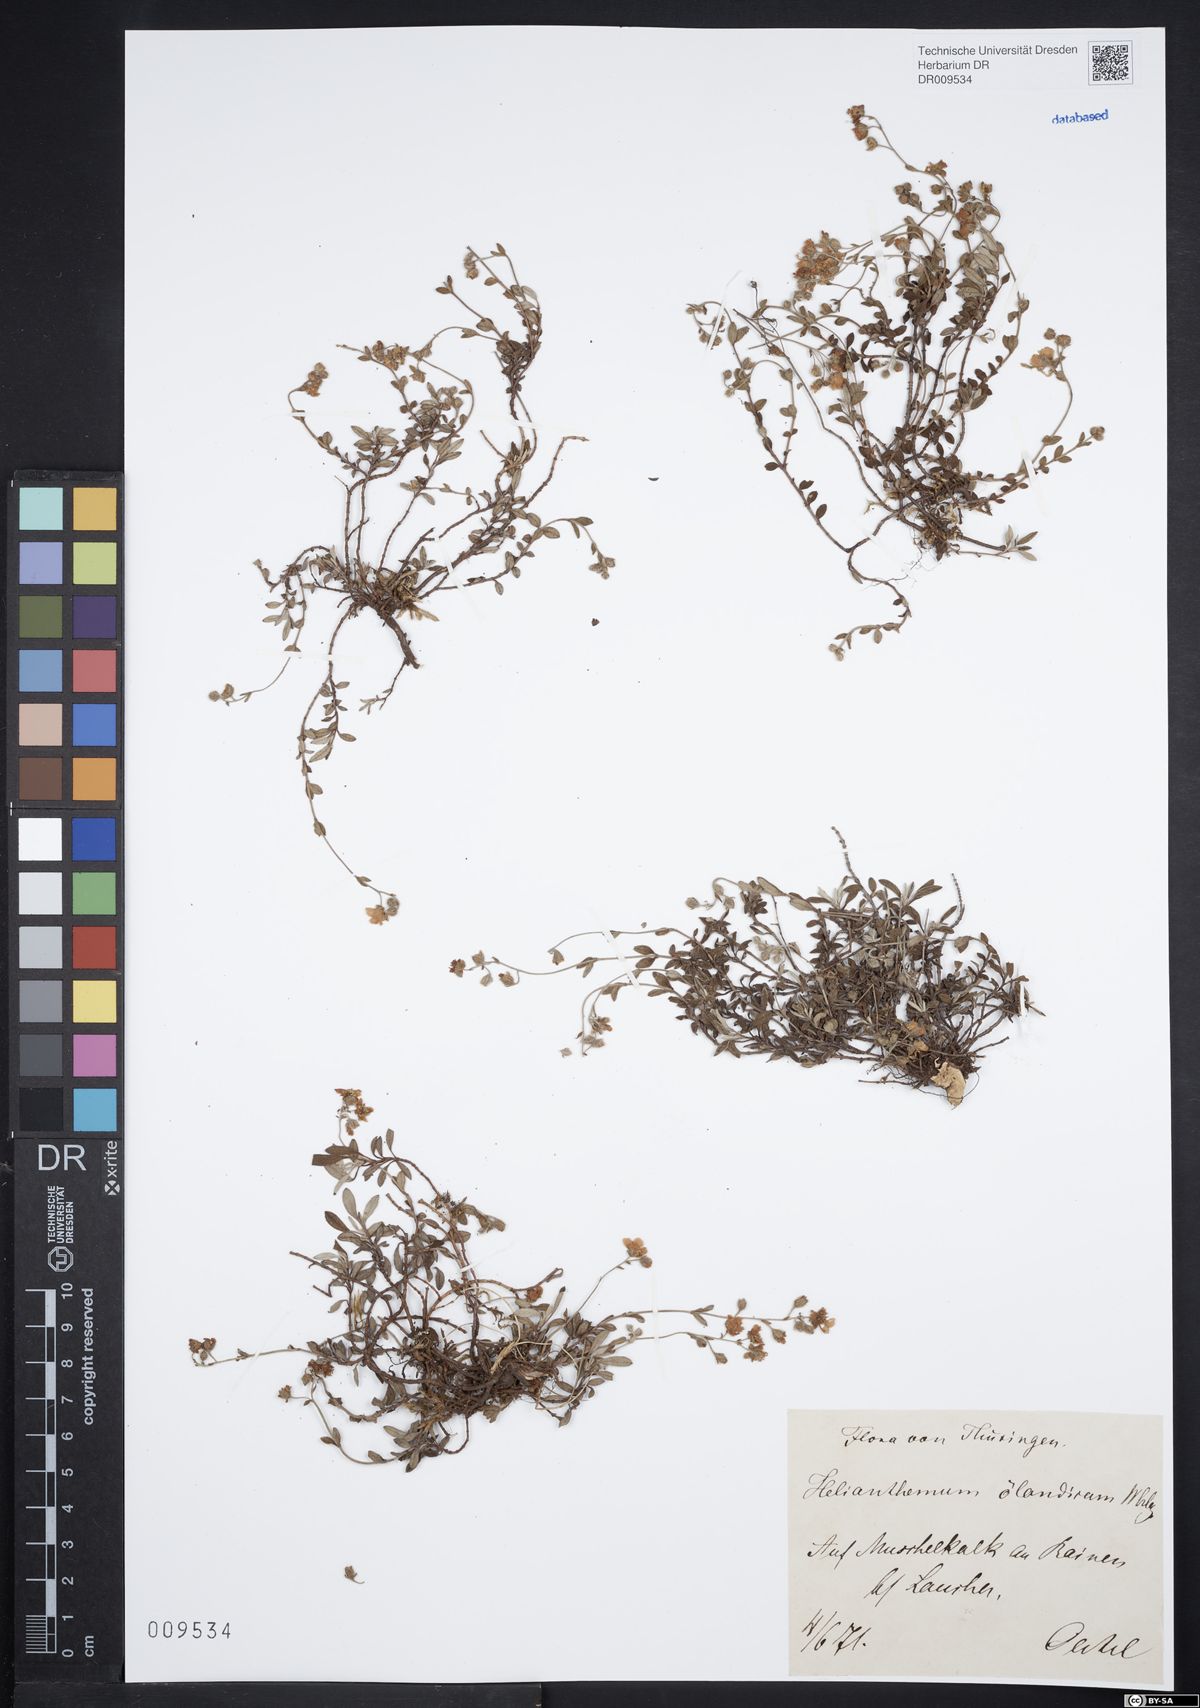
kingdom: Plantae
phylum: Tracheophyta
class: Magnoliopsida
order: Malvales
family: Cistaceae
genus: Helianthemum
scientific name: Helianthemum canum
